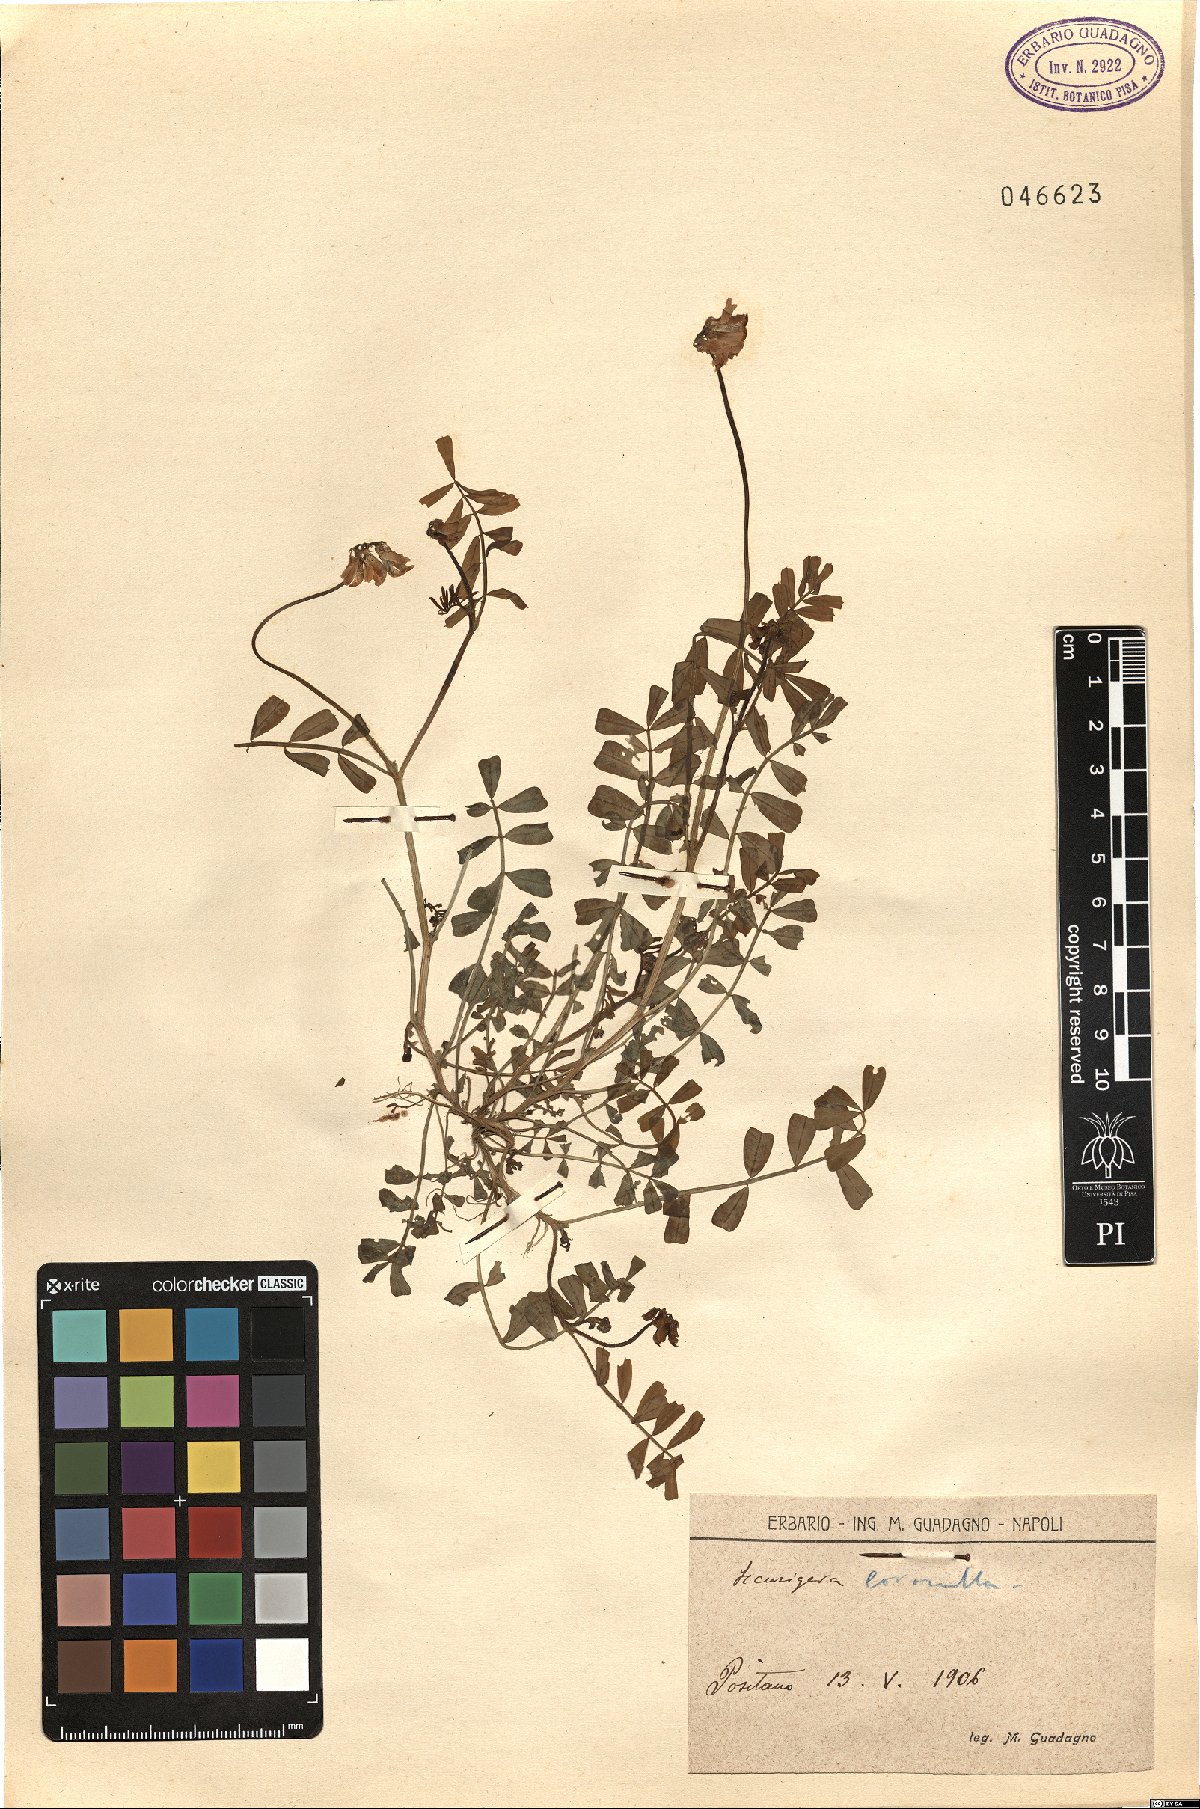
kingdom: Plantae
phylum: Tracheophyta
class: Magnoliopsida
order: Fabales
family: Fabaceae
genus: Coronilla
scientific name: Coronilla securidaca
